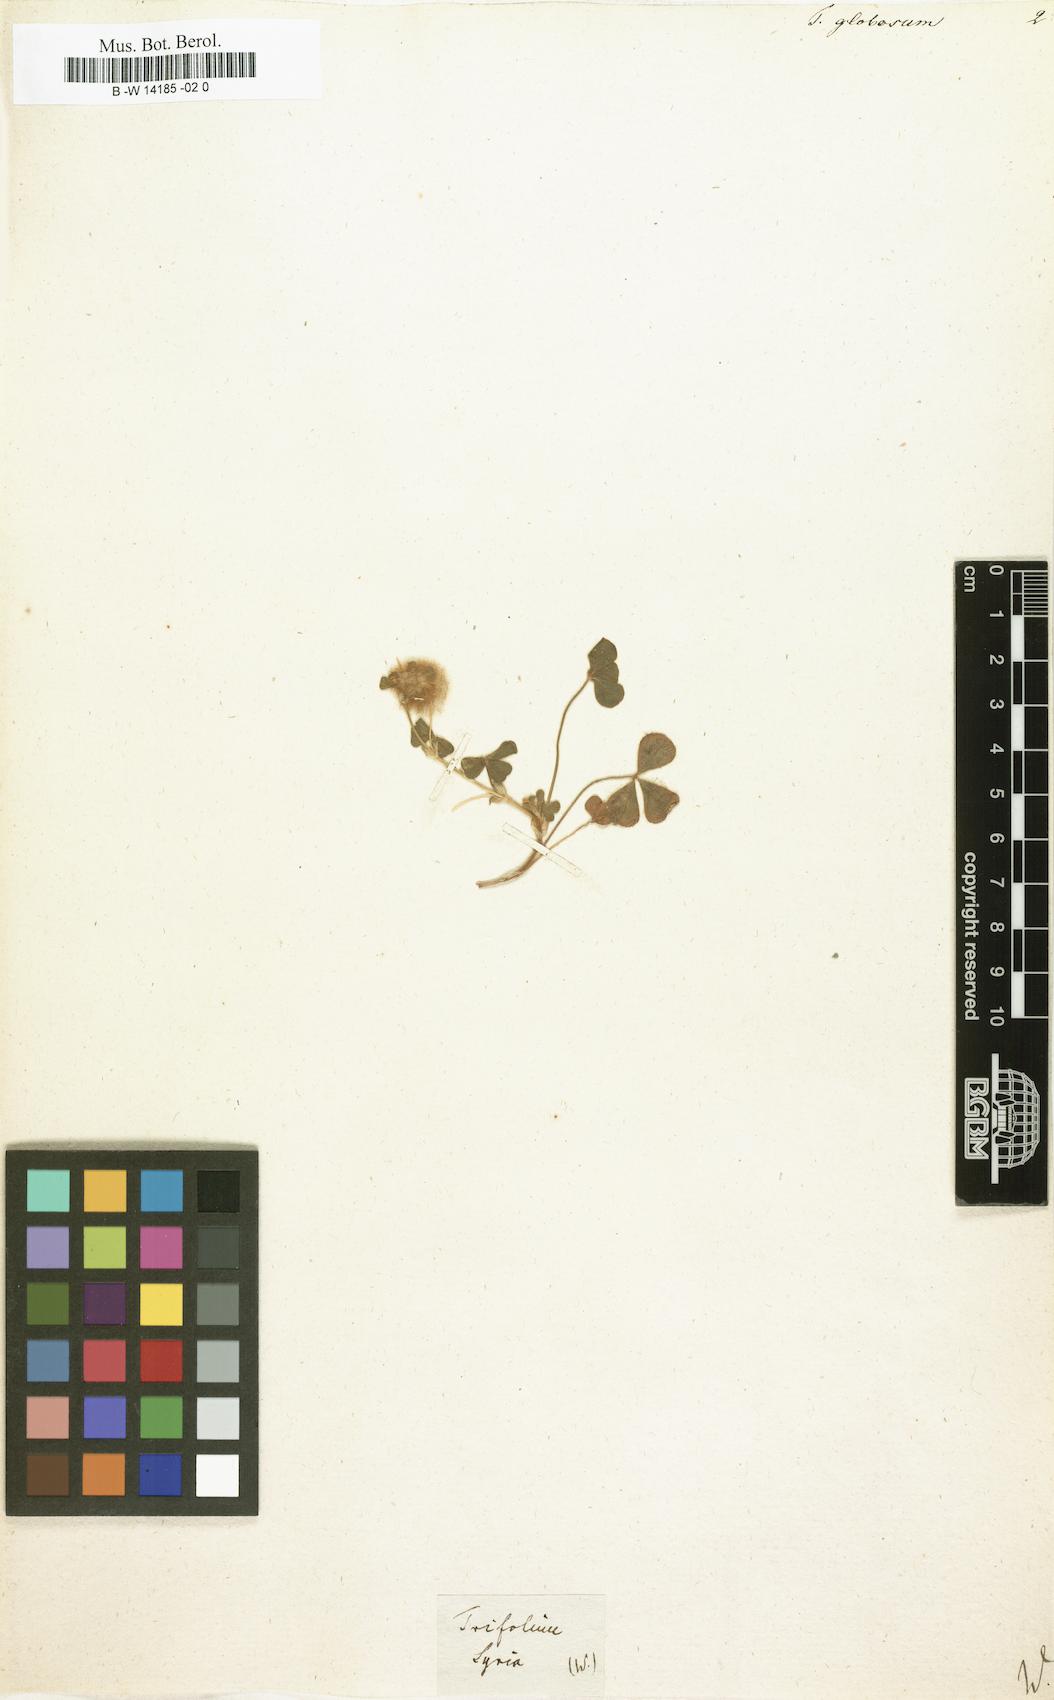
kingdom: Plantae
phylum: Tracheophyta
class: Magnoliopsida
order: Fabales
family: Fabaceae
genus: Trifolium
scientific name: Trifolium globosum
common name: Round-head clover
